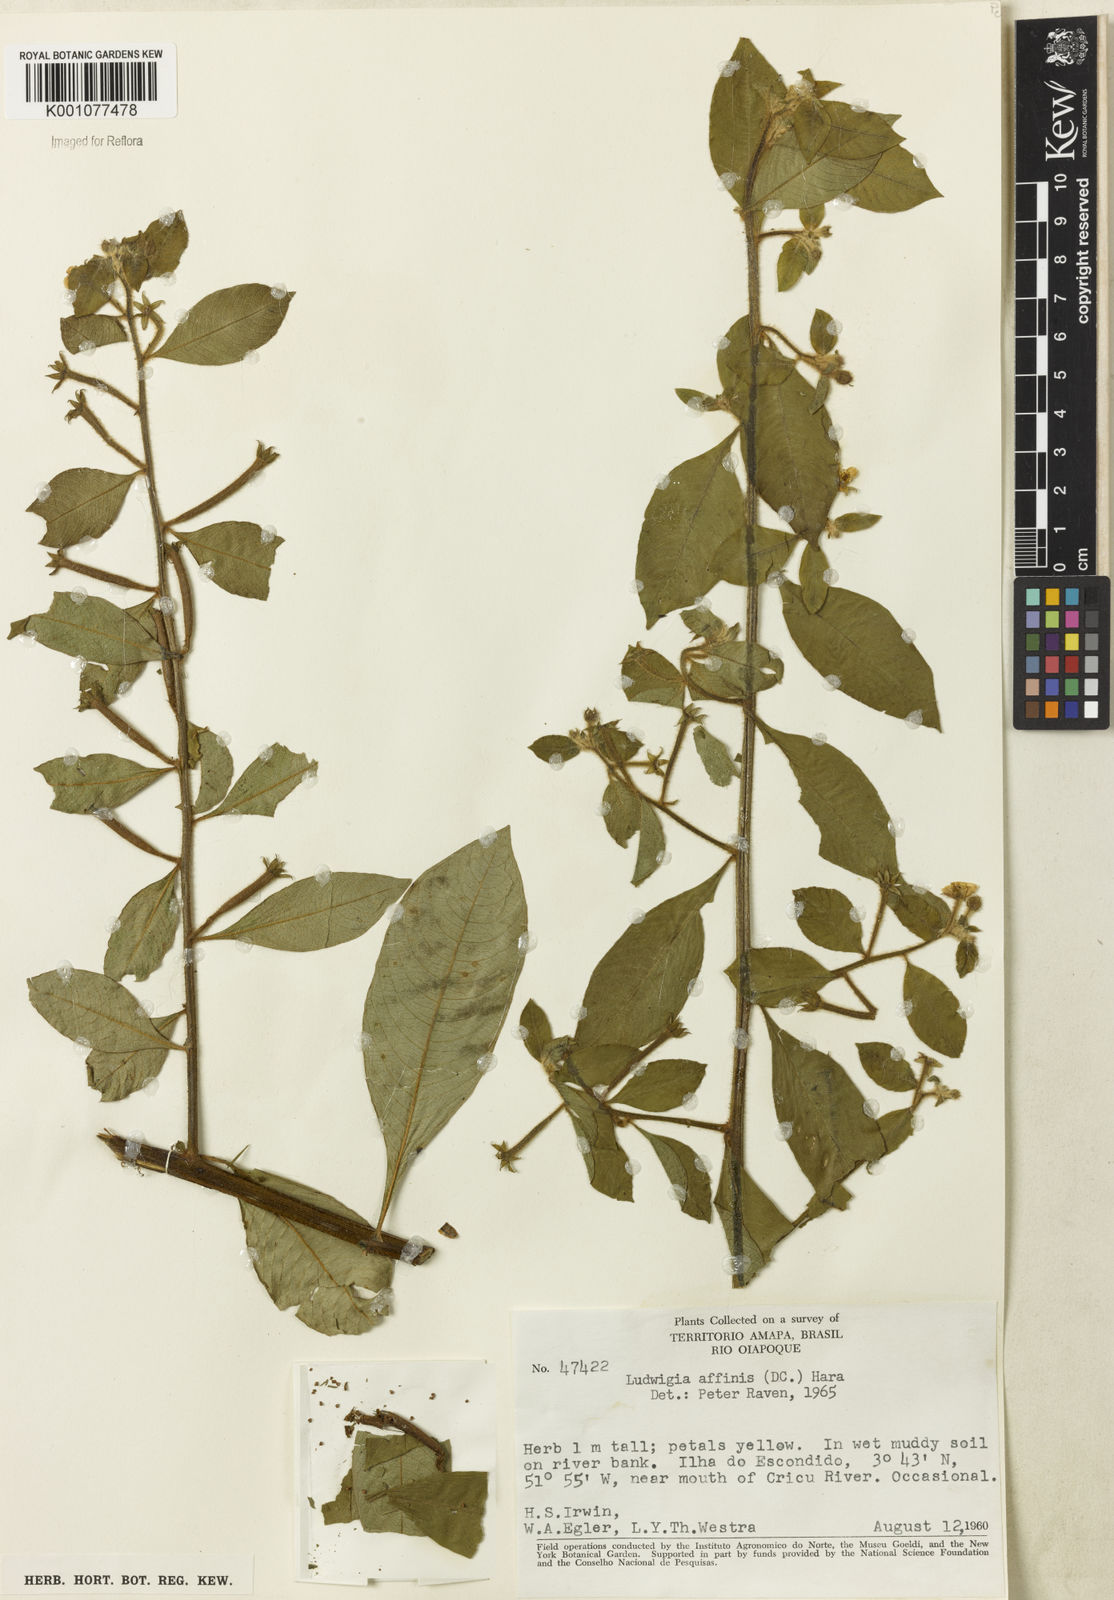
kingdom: Plantae
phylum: Tracheophyta
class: Magnoliopsida
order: Myrtales
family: Onagraceae
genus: Ludwigia
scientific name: Ludwigia affinis
